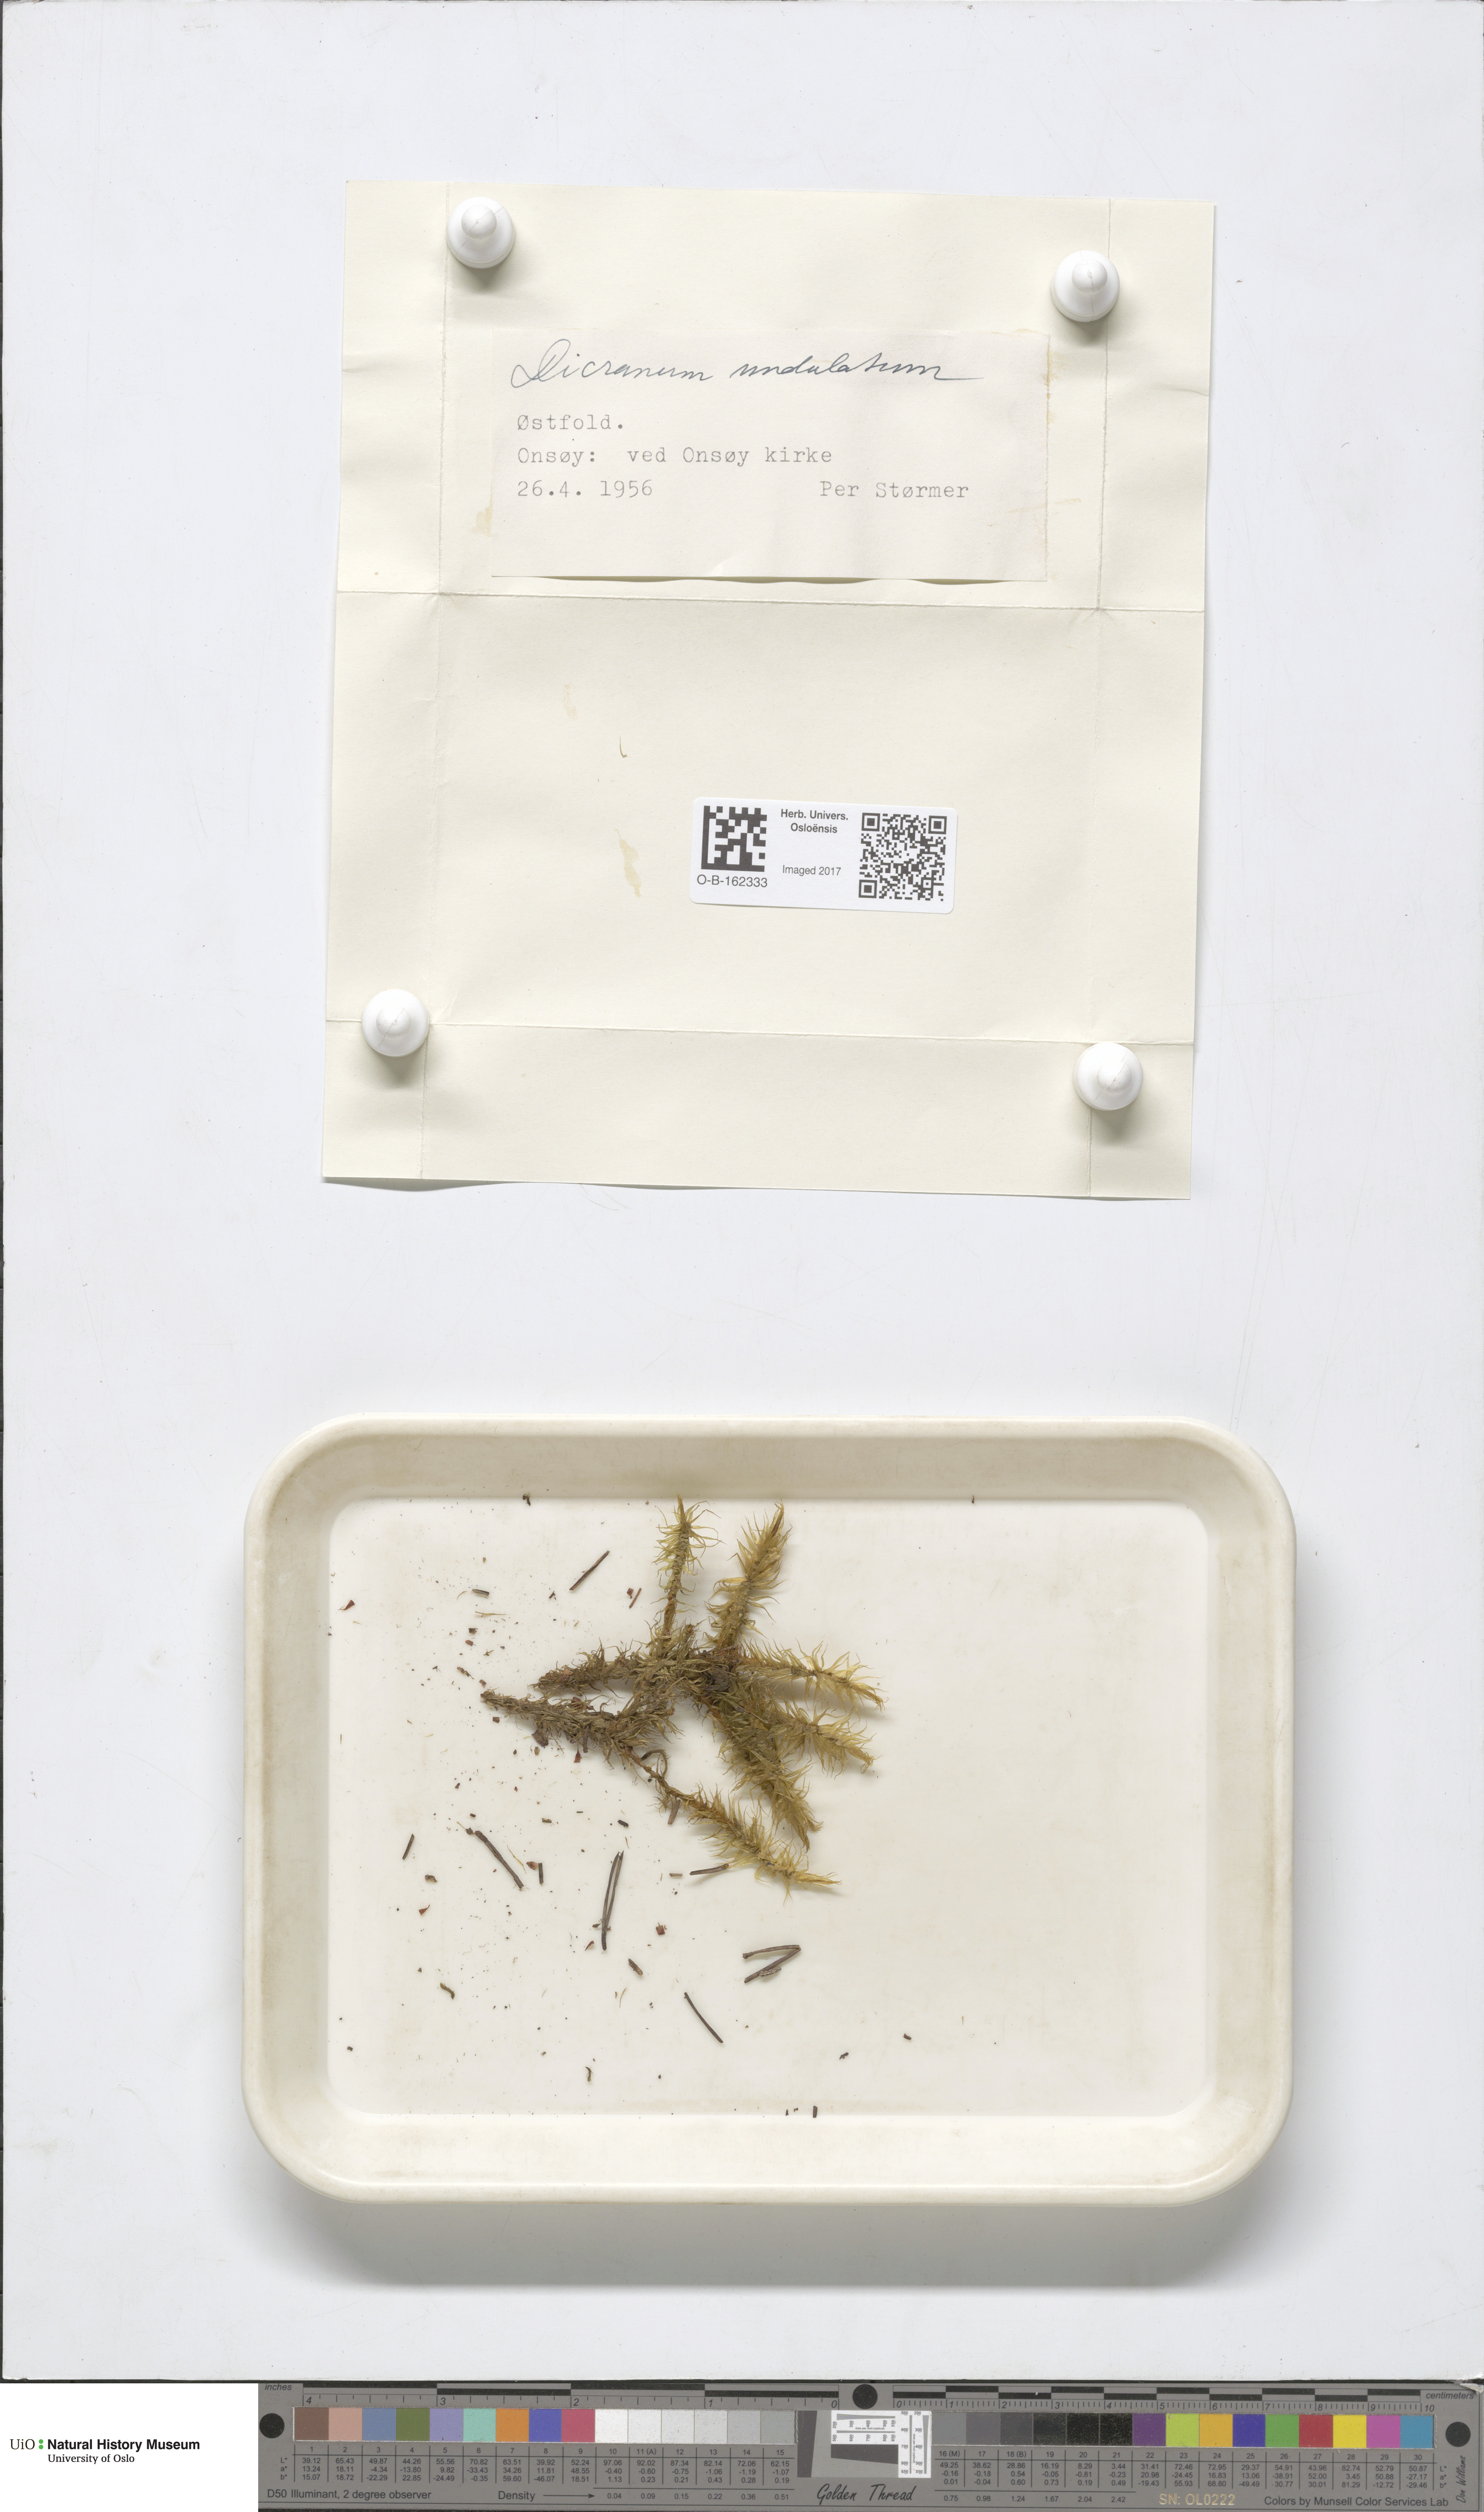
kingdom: Plantae
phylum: Bryophyta
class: Bryopsida
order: Dicranales
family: Dicranaceae
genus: Dicranum
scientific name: Dicranum polysetum
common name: Rugose fork-moss
